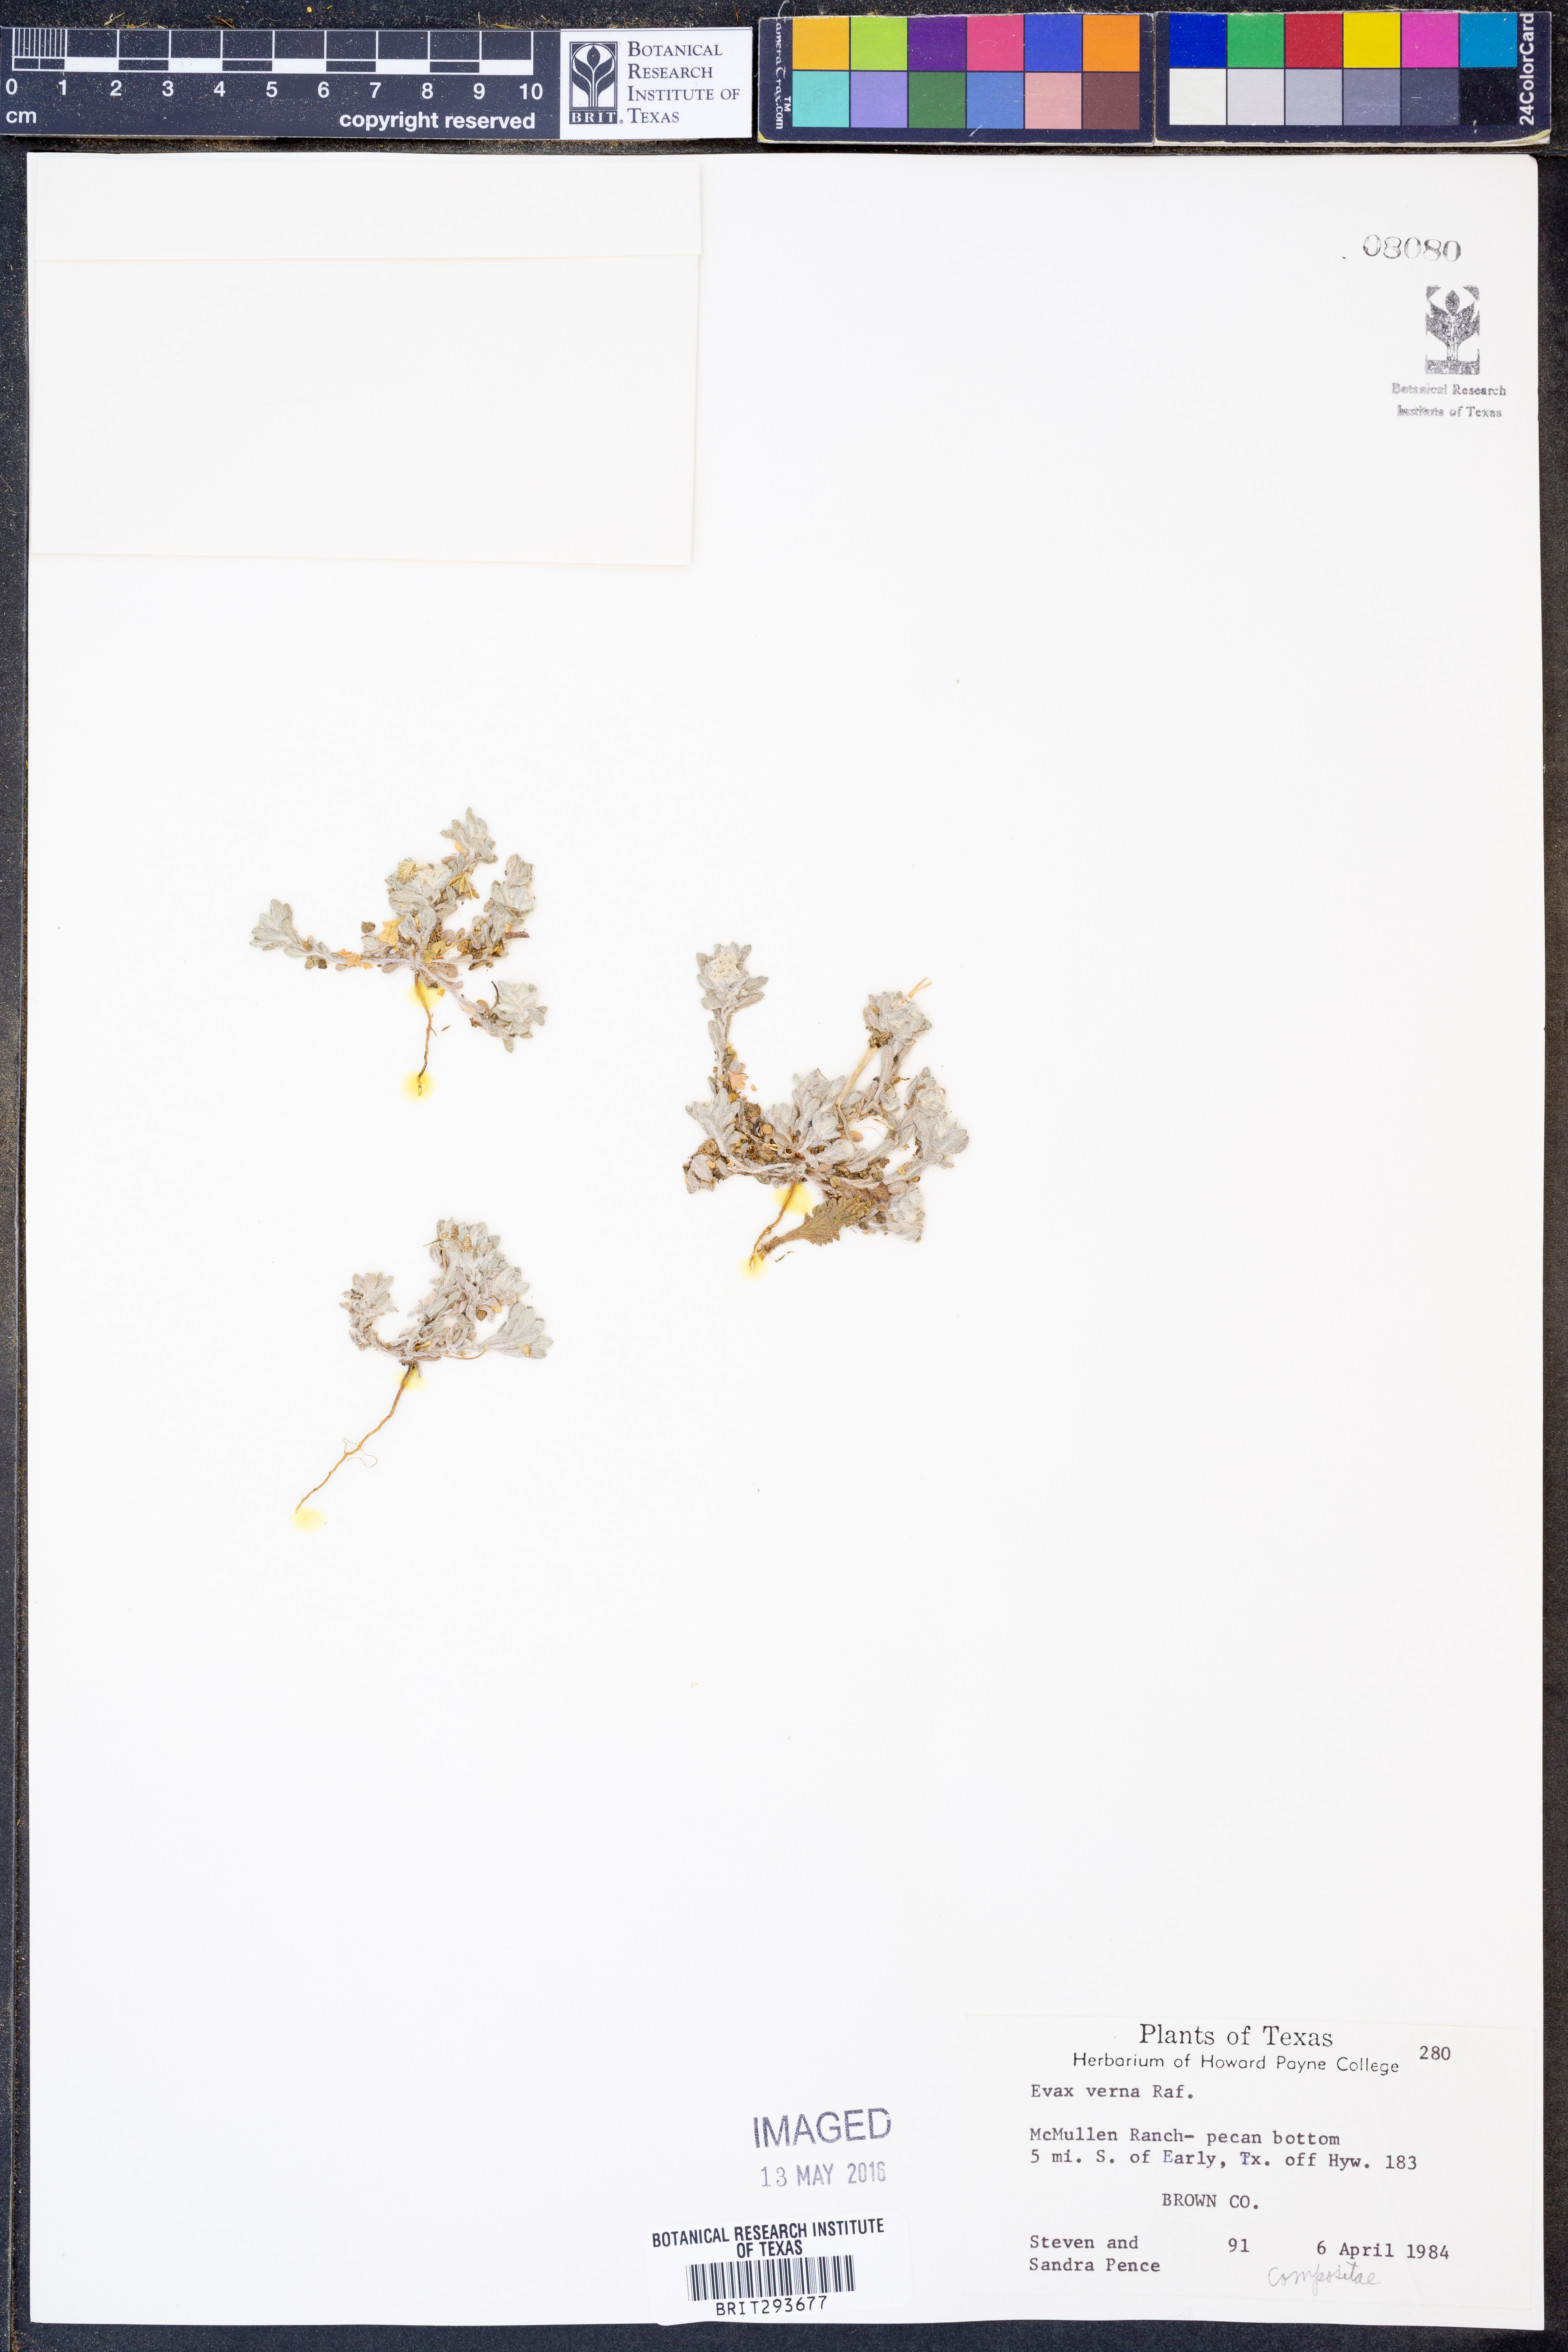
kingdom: Plantae
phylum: Tracheophyta
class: Magnoliopsida
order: Asterales
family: Asteraceae
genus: Diaperia
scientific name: Diaperia verna
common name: Many-stem rabbit-tobacco
